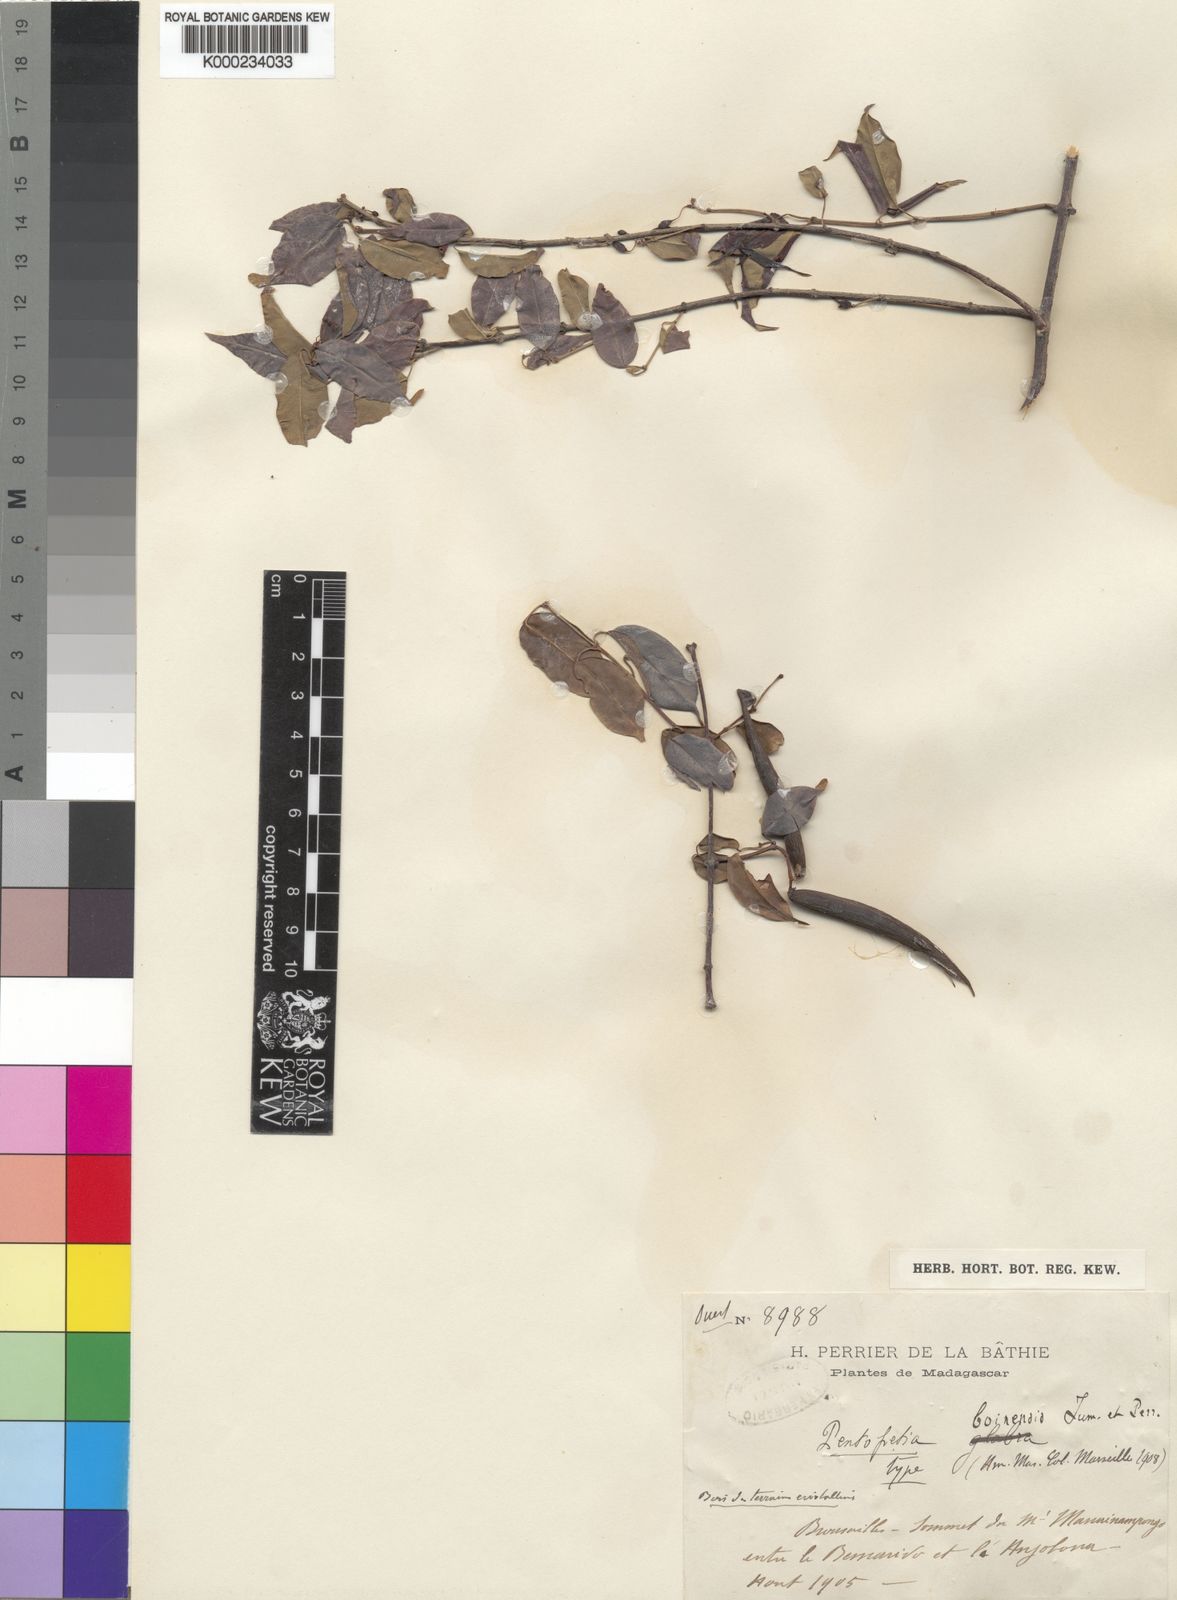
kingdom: Plantae
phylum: Tracheophyta
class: Magnoliopsida
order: Gentianales
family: Apocynaceae
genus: Pentopetia
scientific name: Pentopetia androsaemifolia
